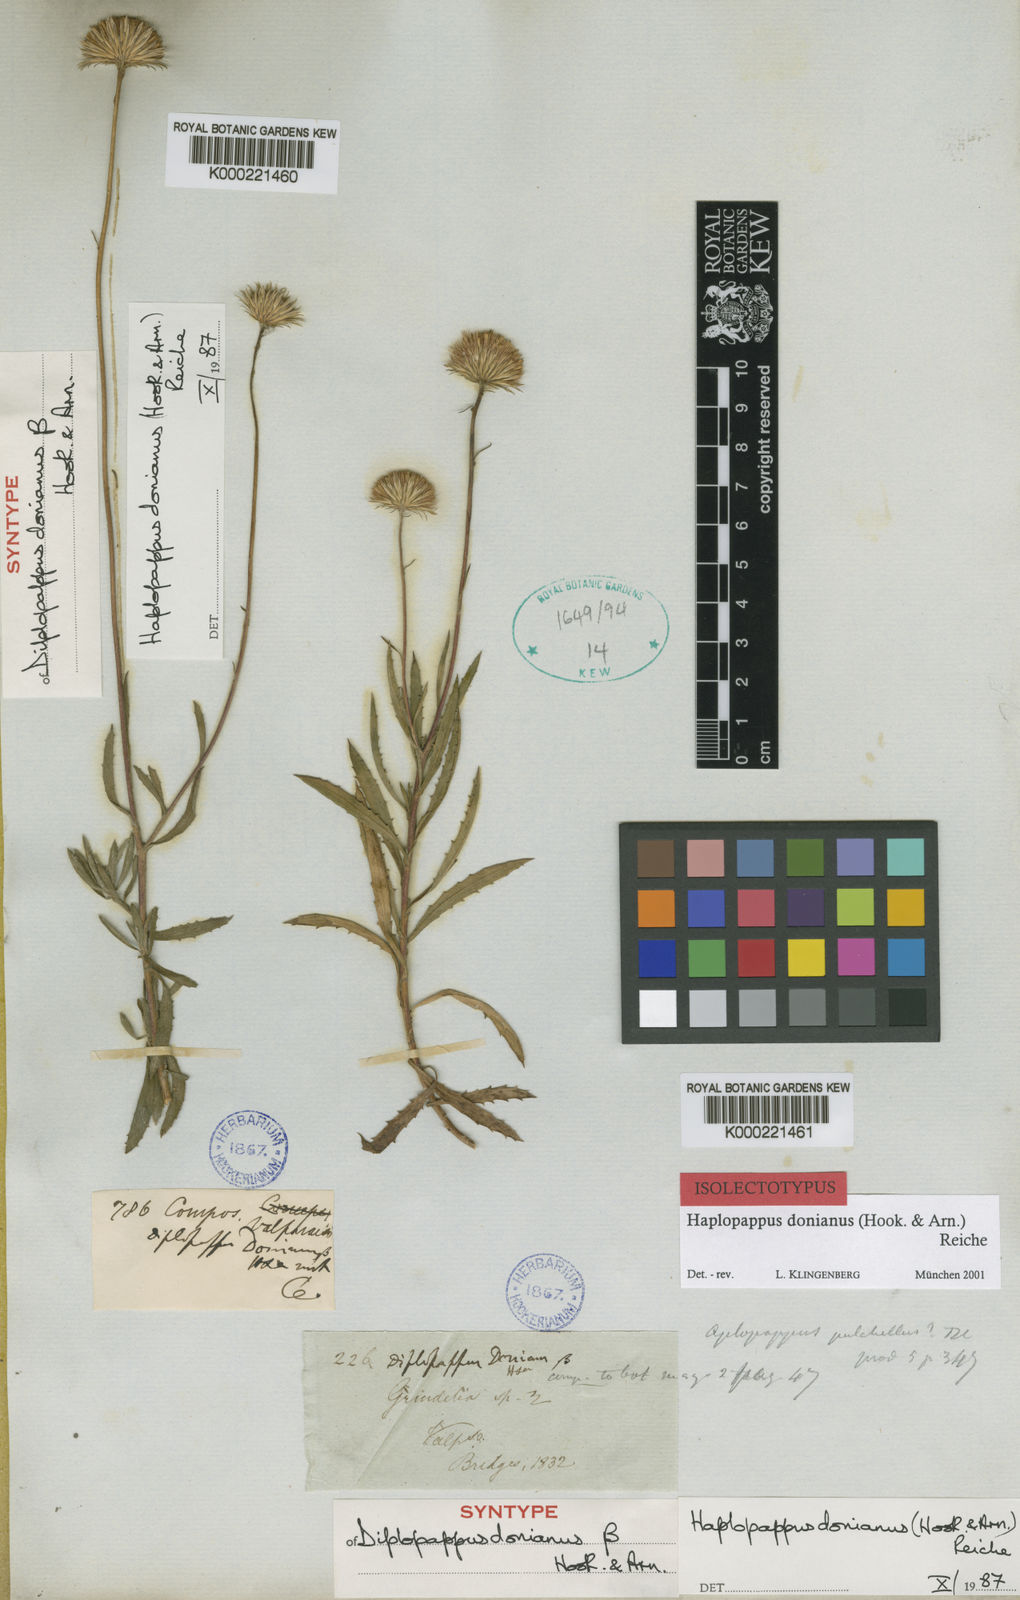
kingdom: Plantae
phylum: Tracheophyta
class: Magnoliopsida
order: Asterales
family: Asteraceae
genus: Haplopappus
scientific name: Haplopappus donianus
